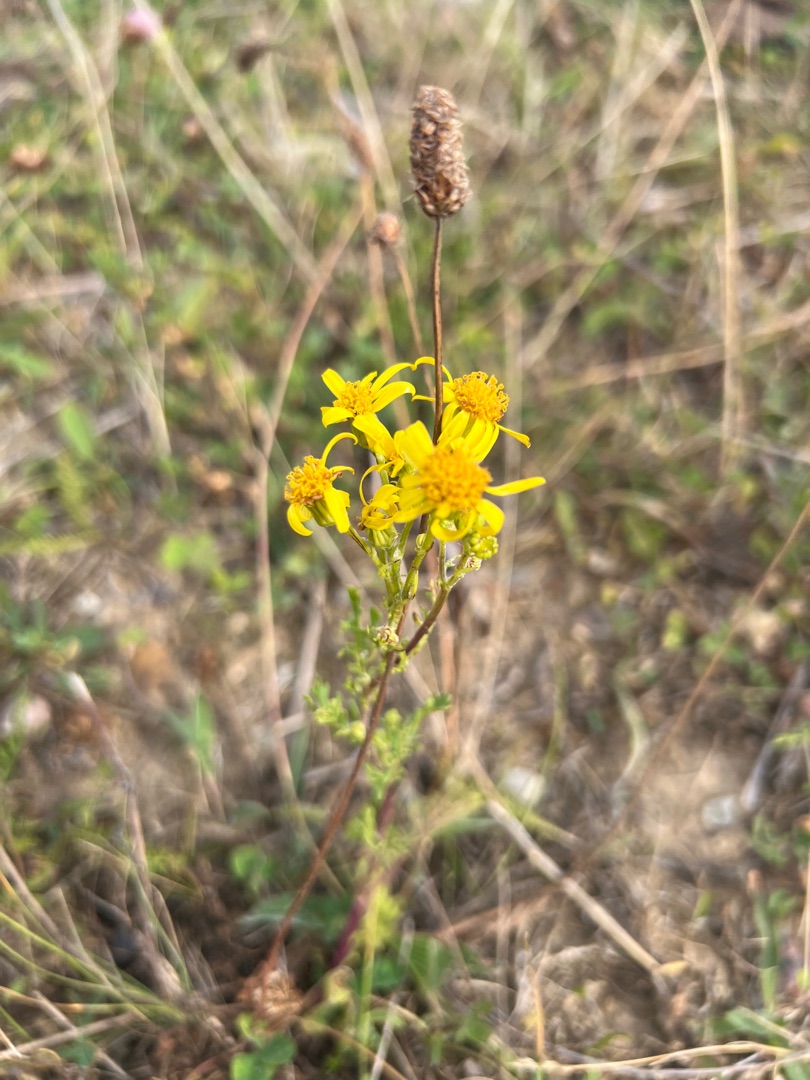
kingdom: Plantae
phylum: Tracheophyta
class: Magnoliopsida
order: Asterales
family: Asteraceae
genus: Jacobaea
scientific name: Jacobaea vulgaris
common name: Eng-brandbæger
